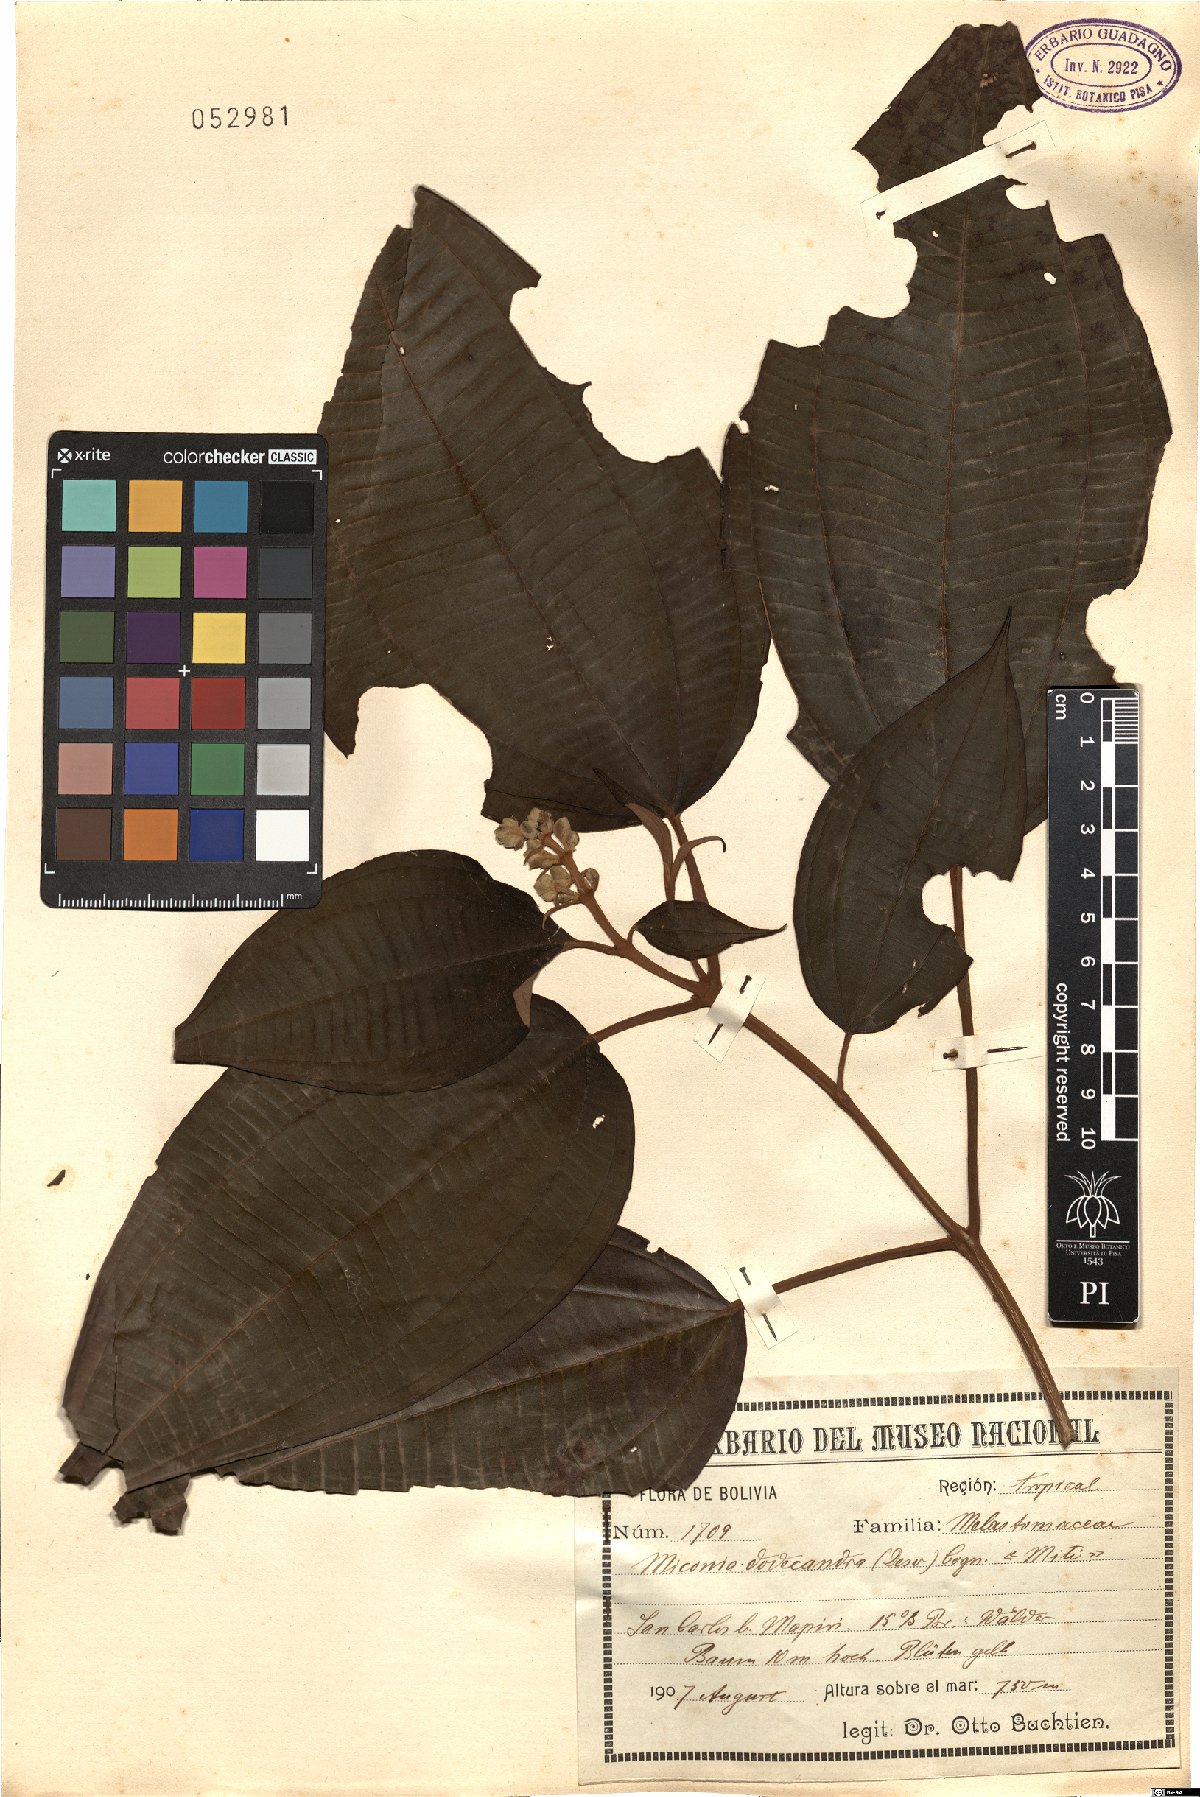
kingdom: Plantae
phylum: Tracheophyta
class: Magnoliopsida
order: Myrtales
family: Melastomataceae
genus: Miconia
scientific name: Miconia dodecandra
